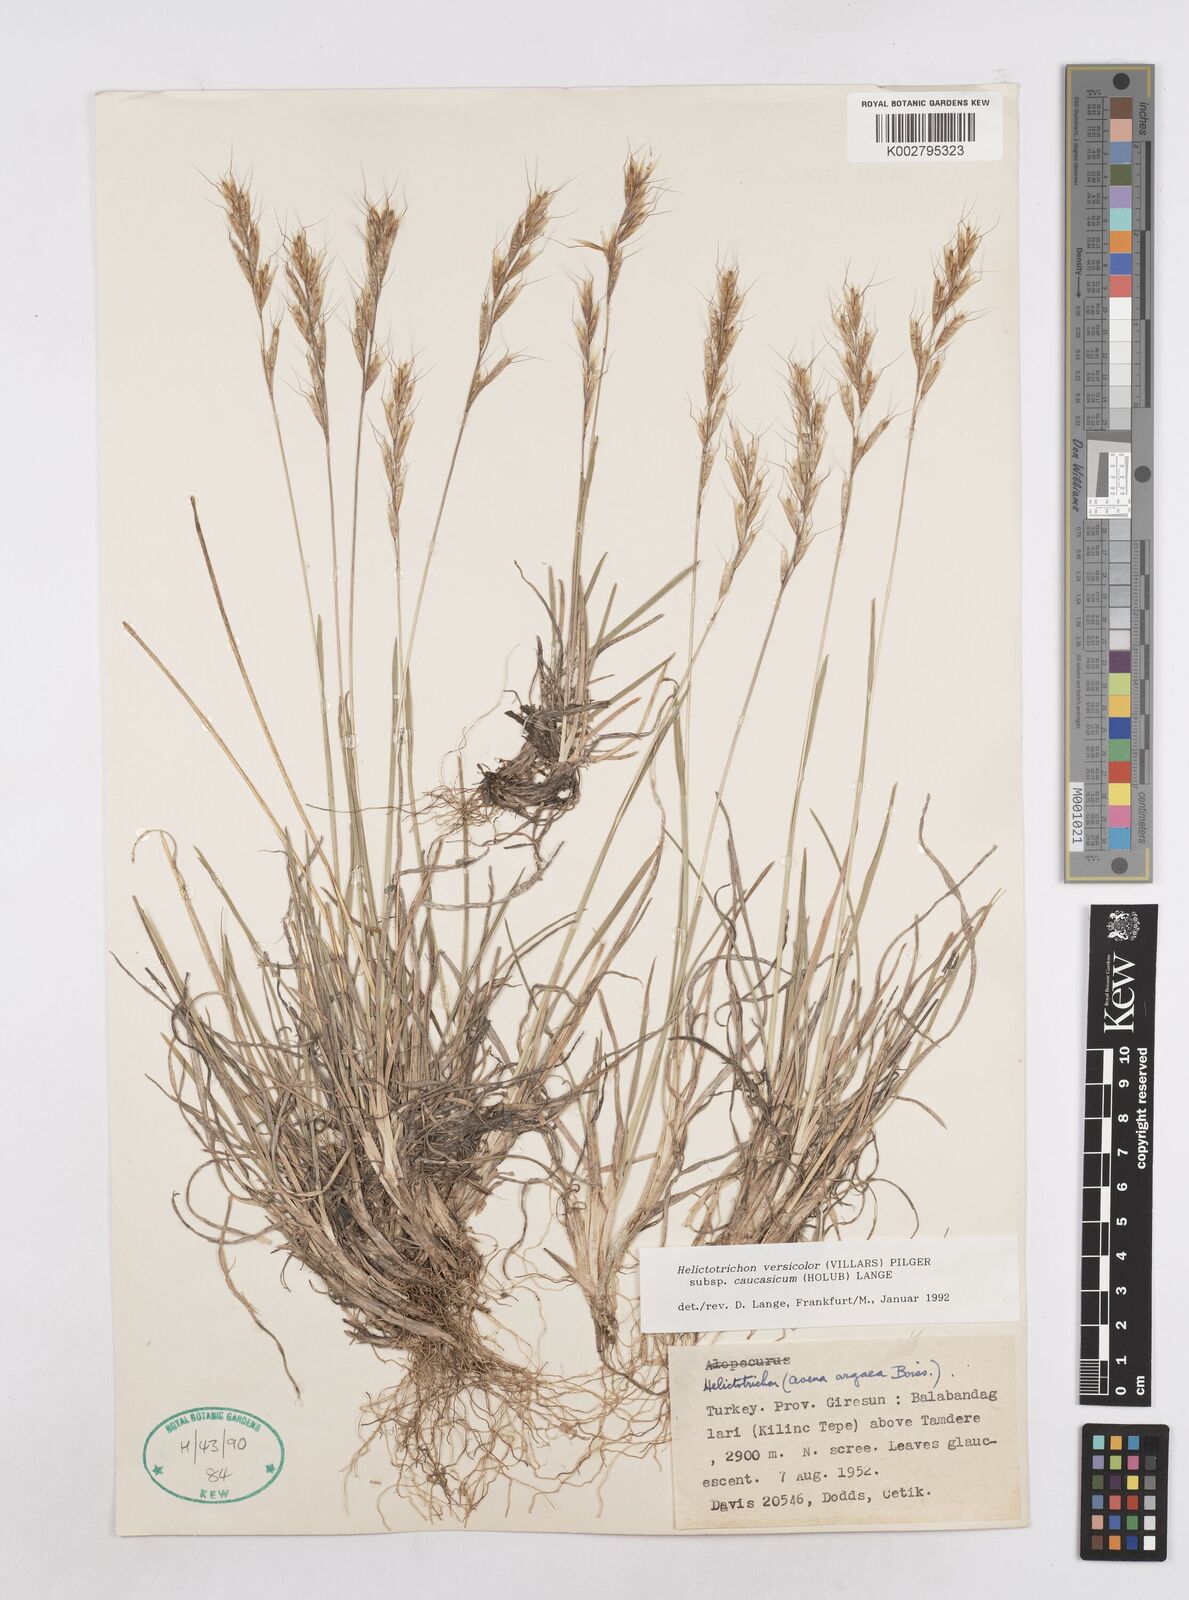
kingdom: Plantae
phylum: Tracheophyta
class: Liliopsida
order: Poales
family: Poaceae
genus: Helictochloa
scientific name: Helictochloa versicolor
